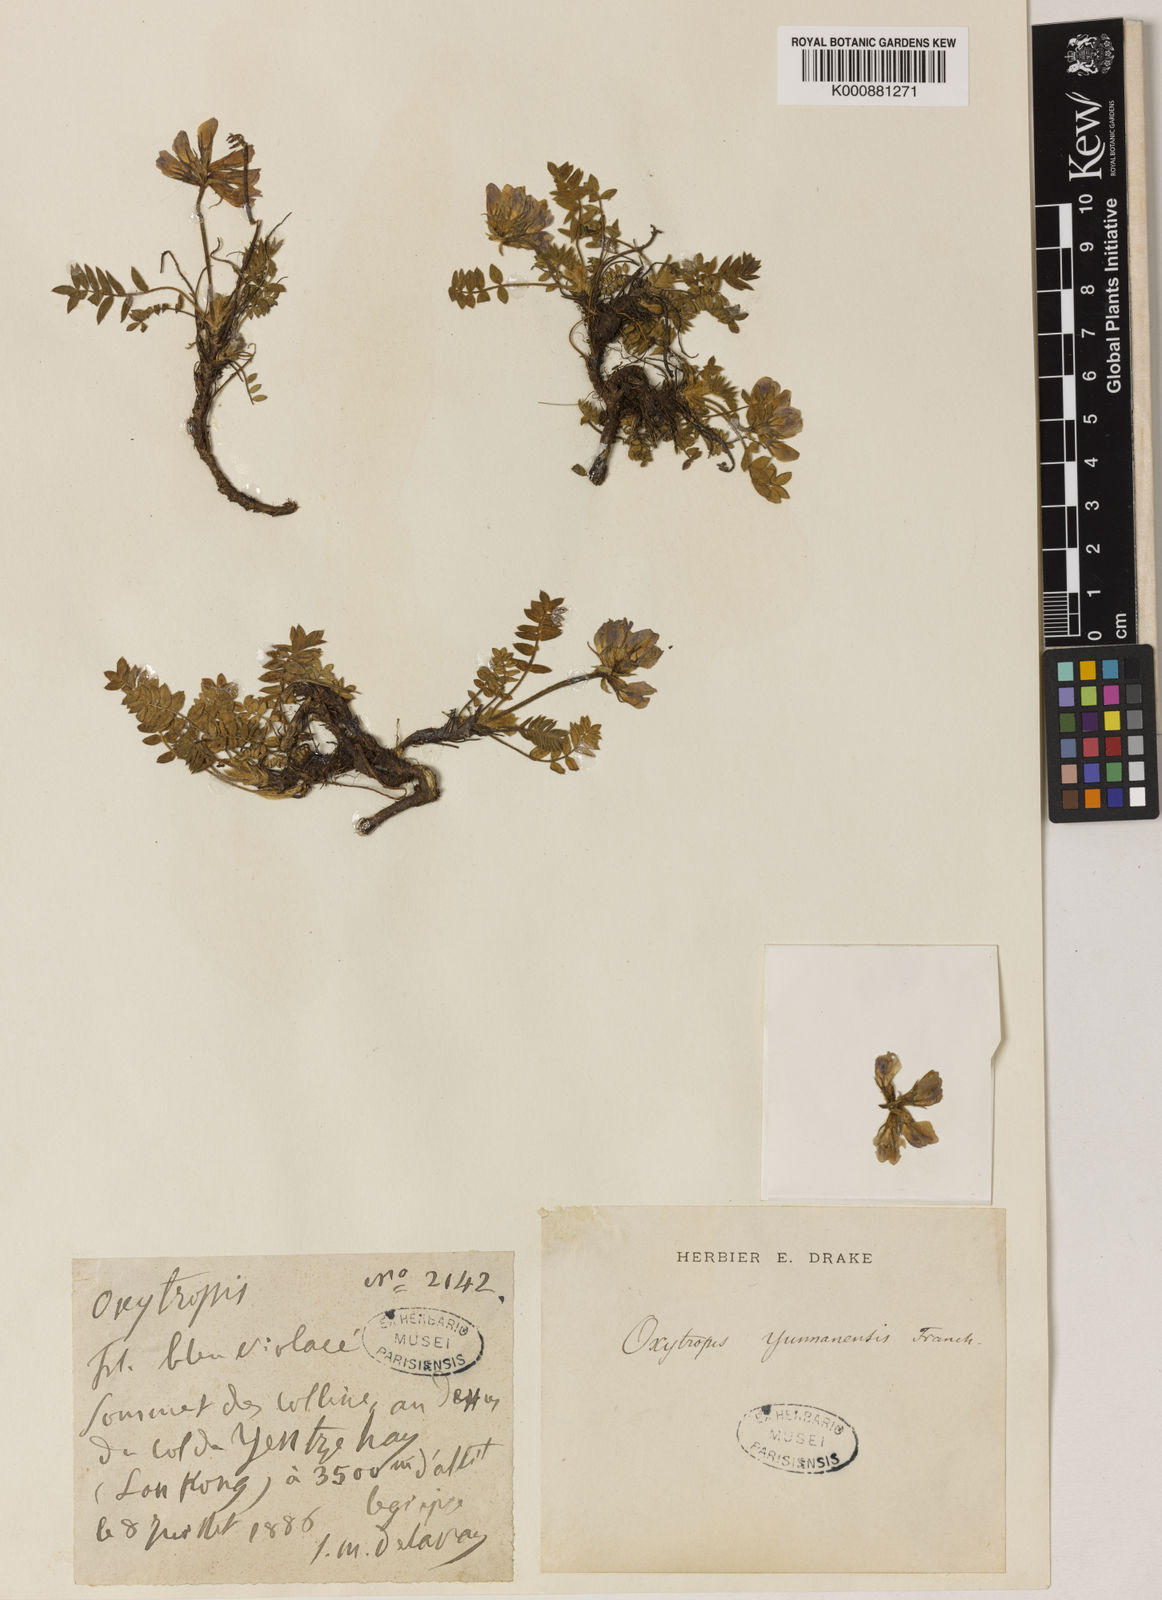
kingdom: Plantae
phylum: Tracheophyta
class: Magnoliopsida
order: Fabales
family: Fabaceae
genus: Oxytropis
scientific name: Oxytropis yunnanensis
